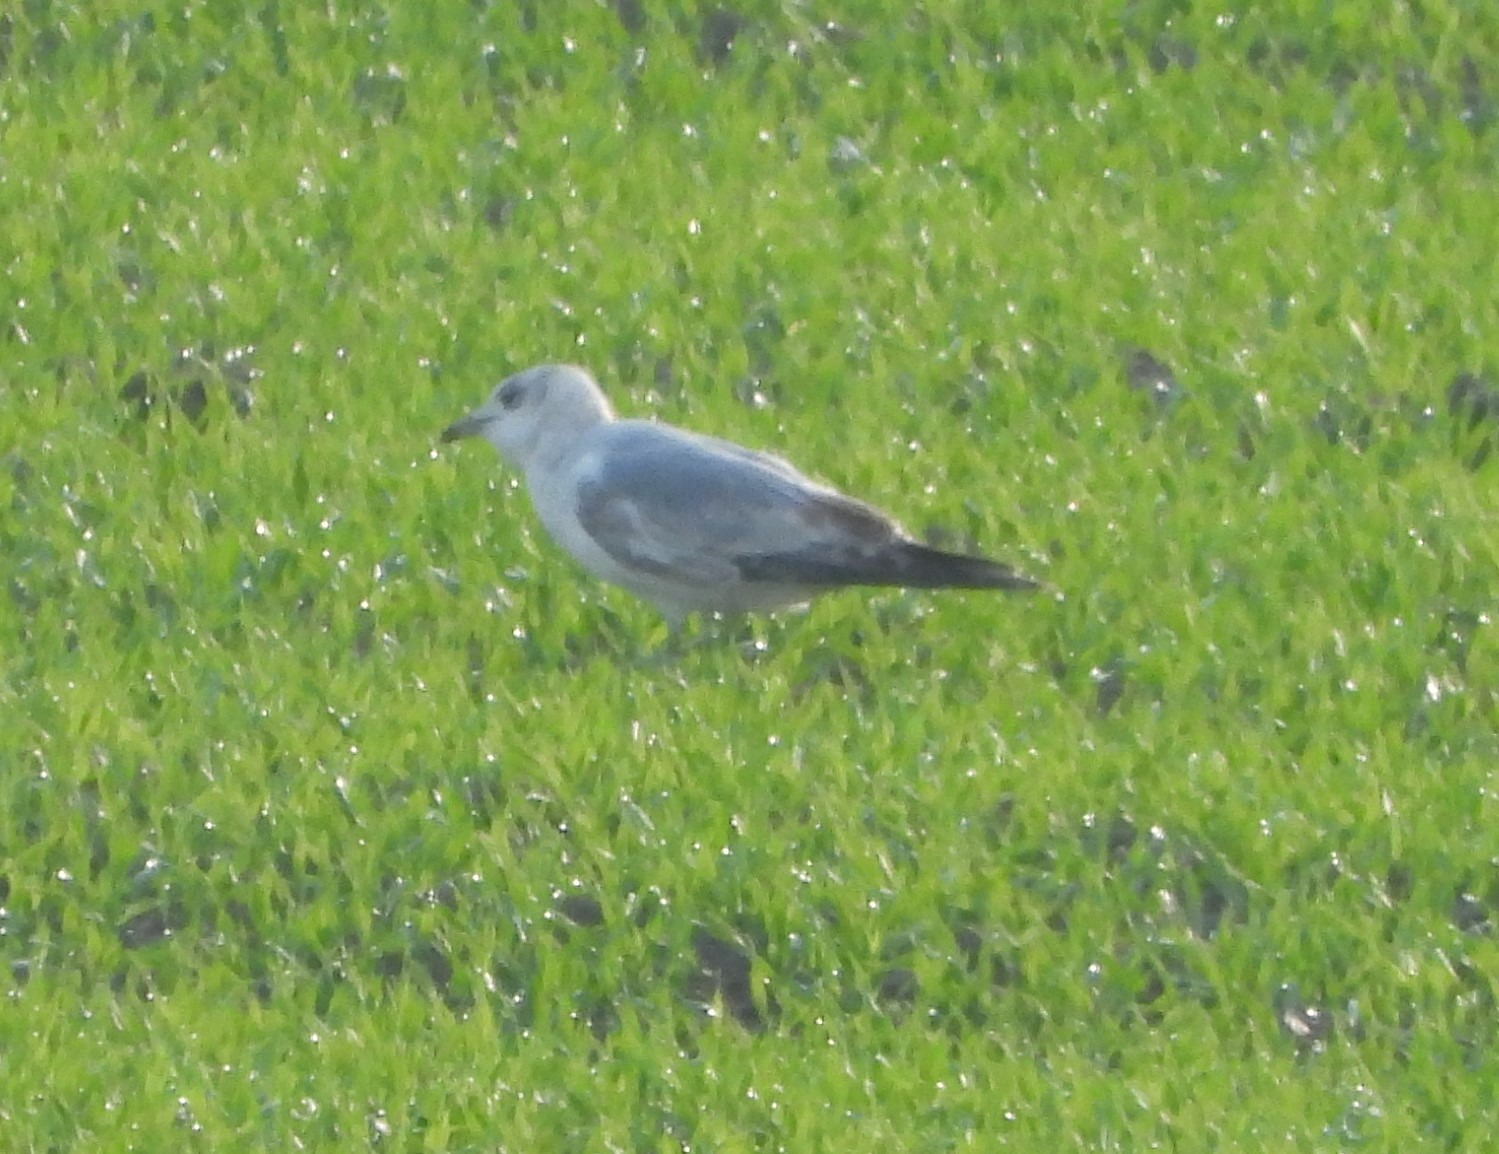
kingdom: Animalia
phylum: Chordata
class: Aves
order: Charadriiformes
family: Laridae
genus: Larus
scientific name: Larus canus
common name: Stormmåge
